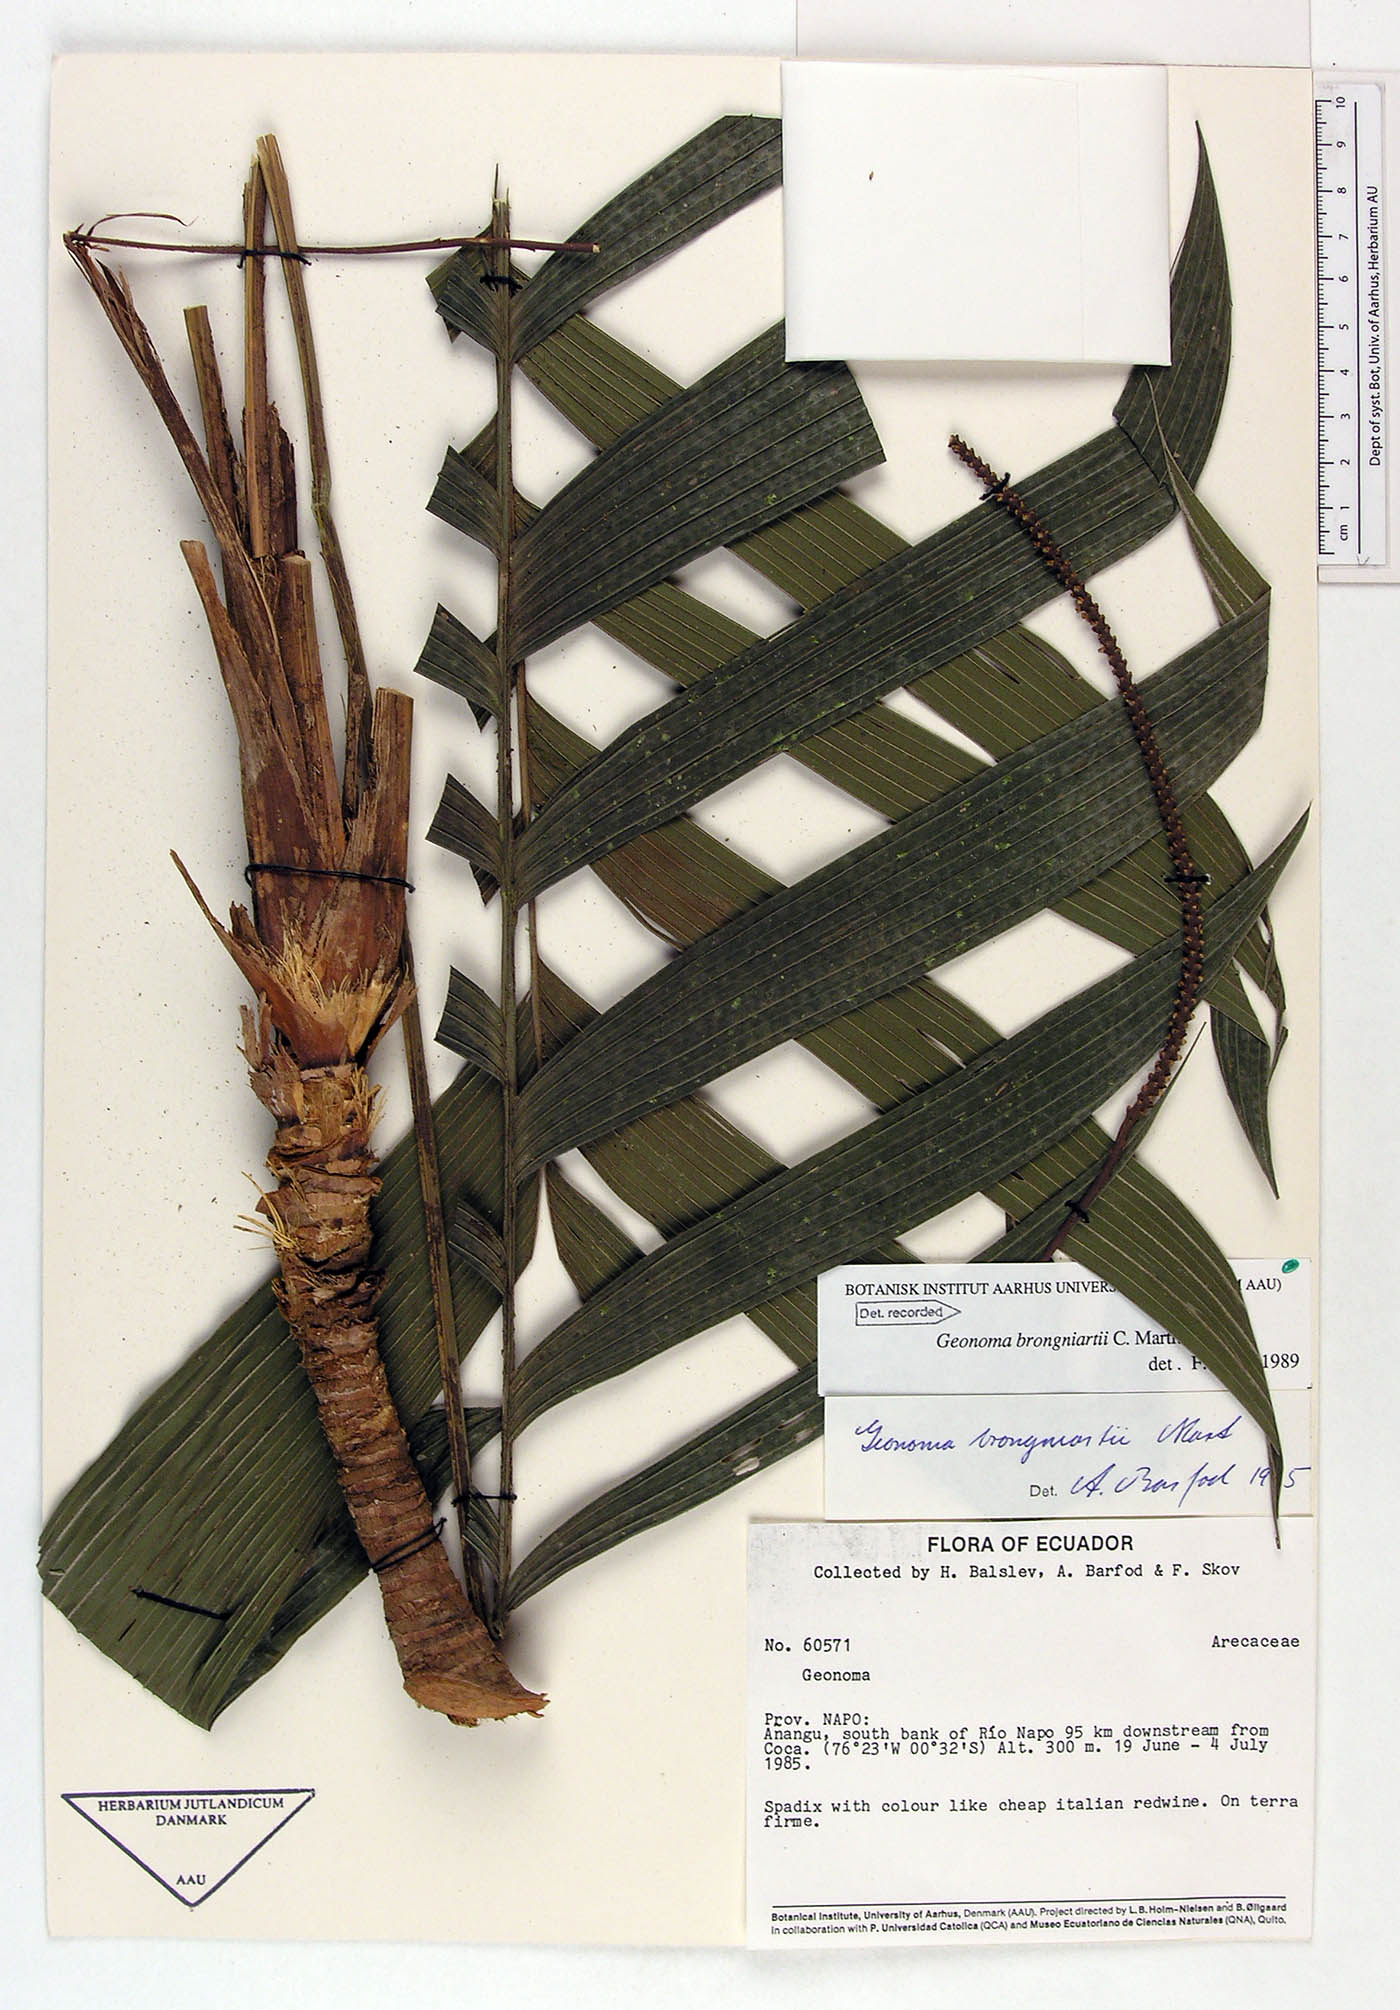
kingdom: Plantae
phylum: Tracheophyta
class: Liliopsida
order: Arecales
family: Arecaceae
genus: Geonoma
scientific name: Geonoma brongniartii
